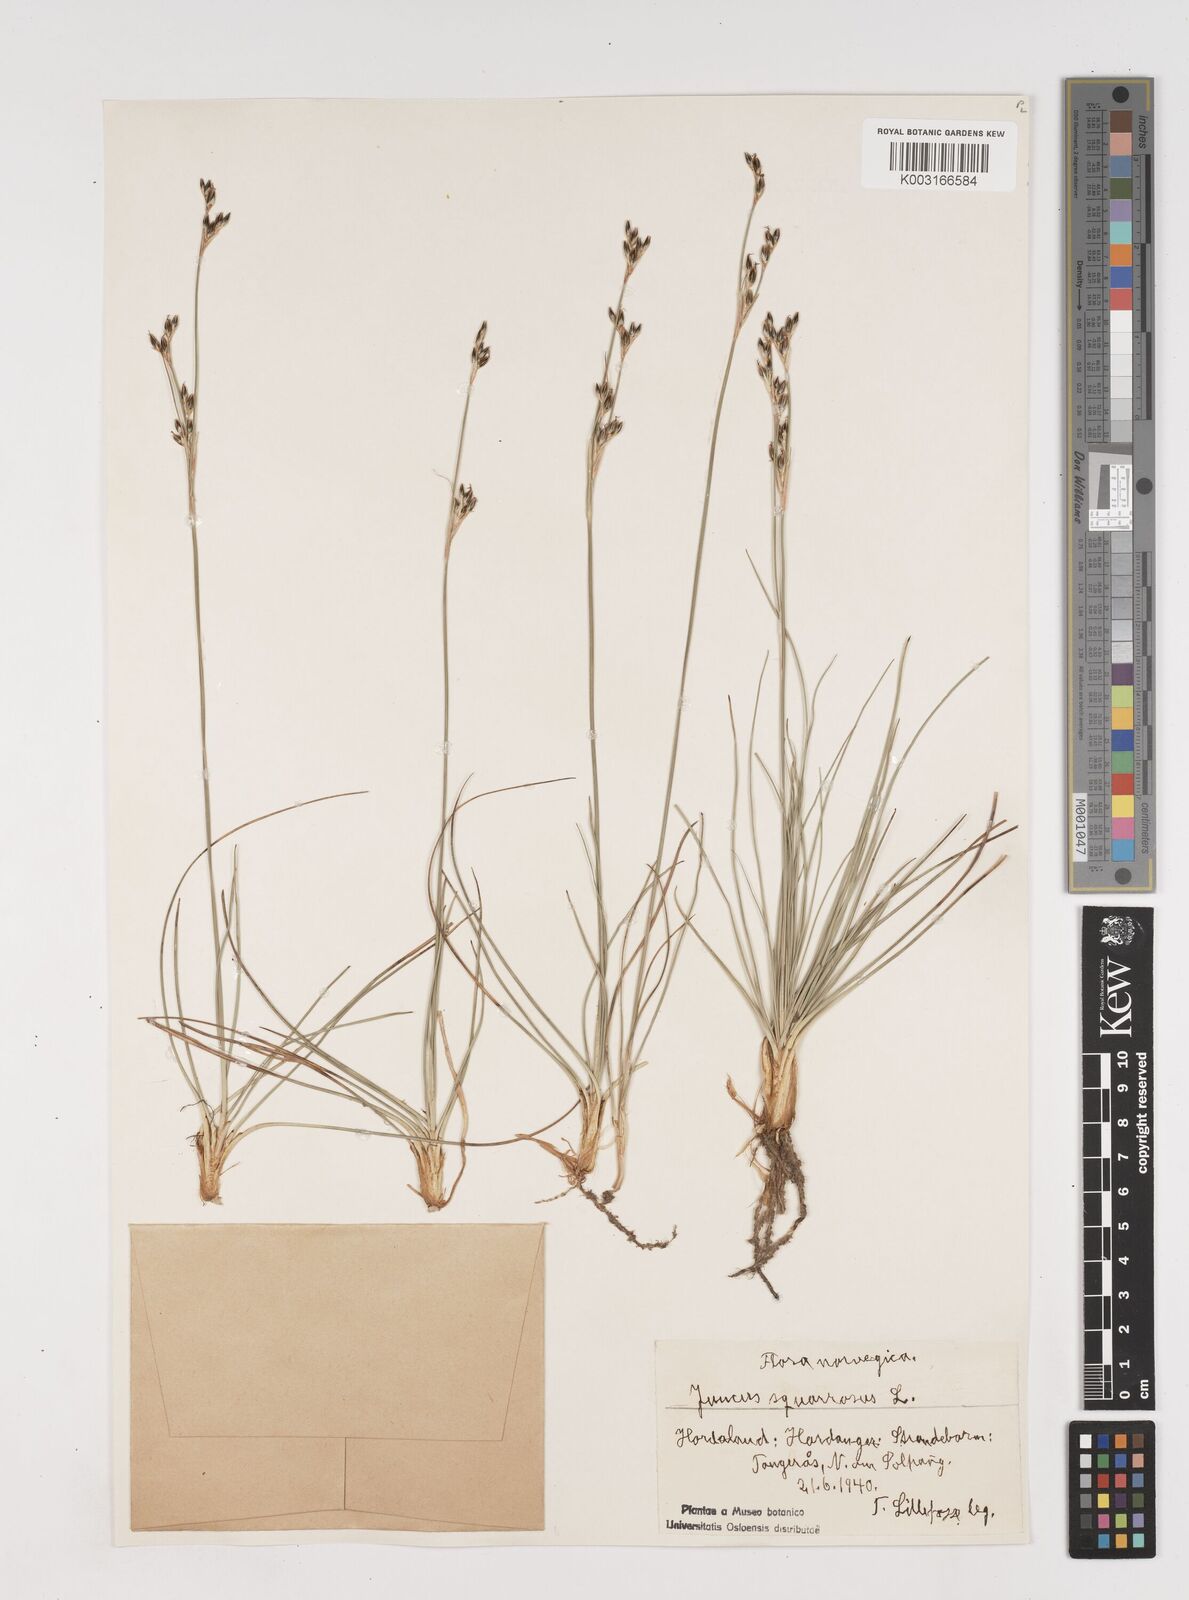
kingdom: Plantae
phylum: Tracheophyta
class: Liliopsida
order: Poales
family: Juncaceae
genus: Juncus
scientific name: Juncus squarrosus
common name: Heath rush
